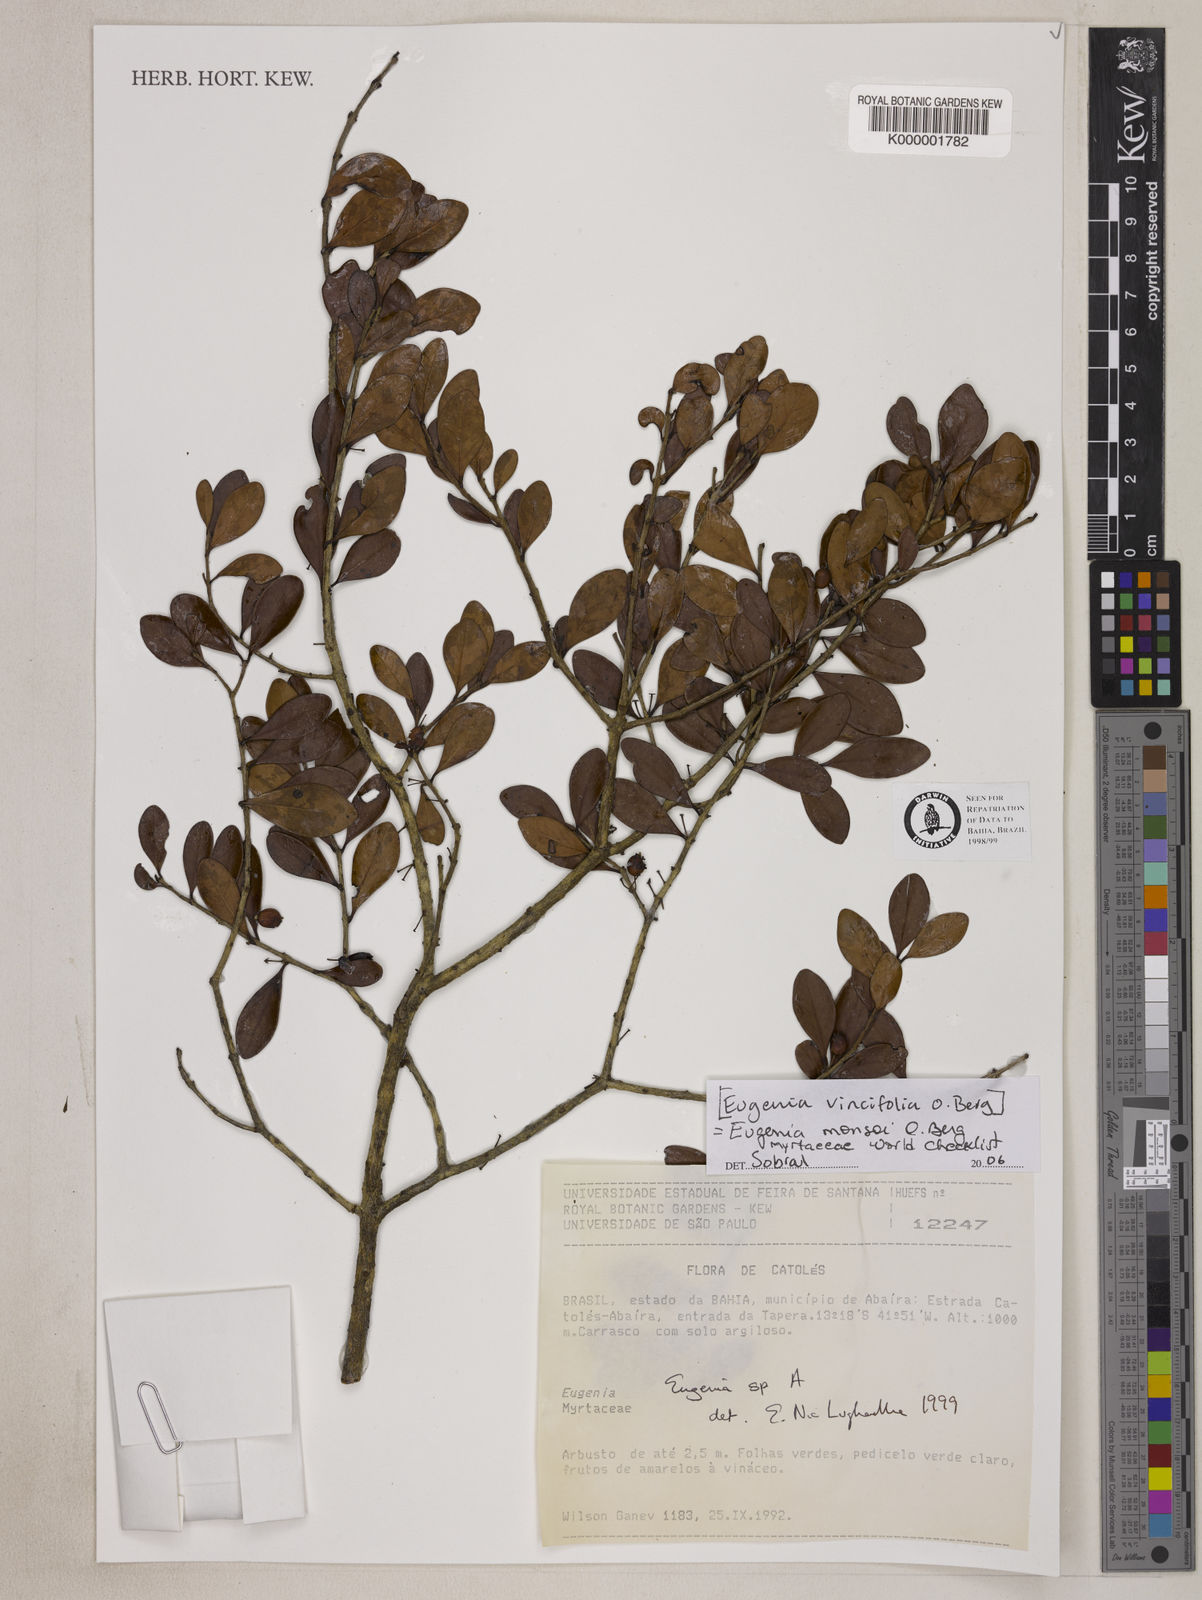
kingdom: Plantae
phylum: Tracheophyta
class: Magnoliopsida
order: Myrtales
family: Myrtaceae
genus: Eugenia
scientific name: Eugenia
